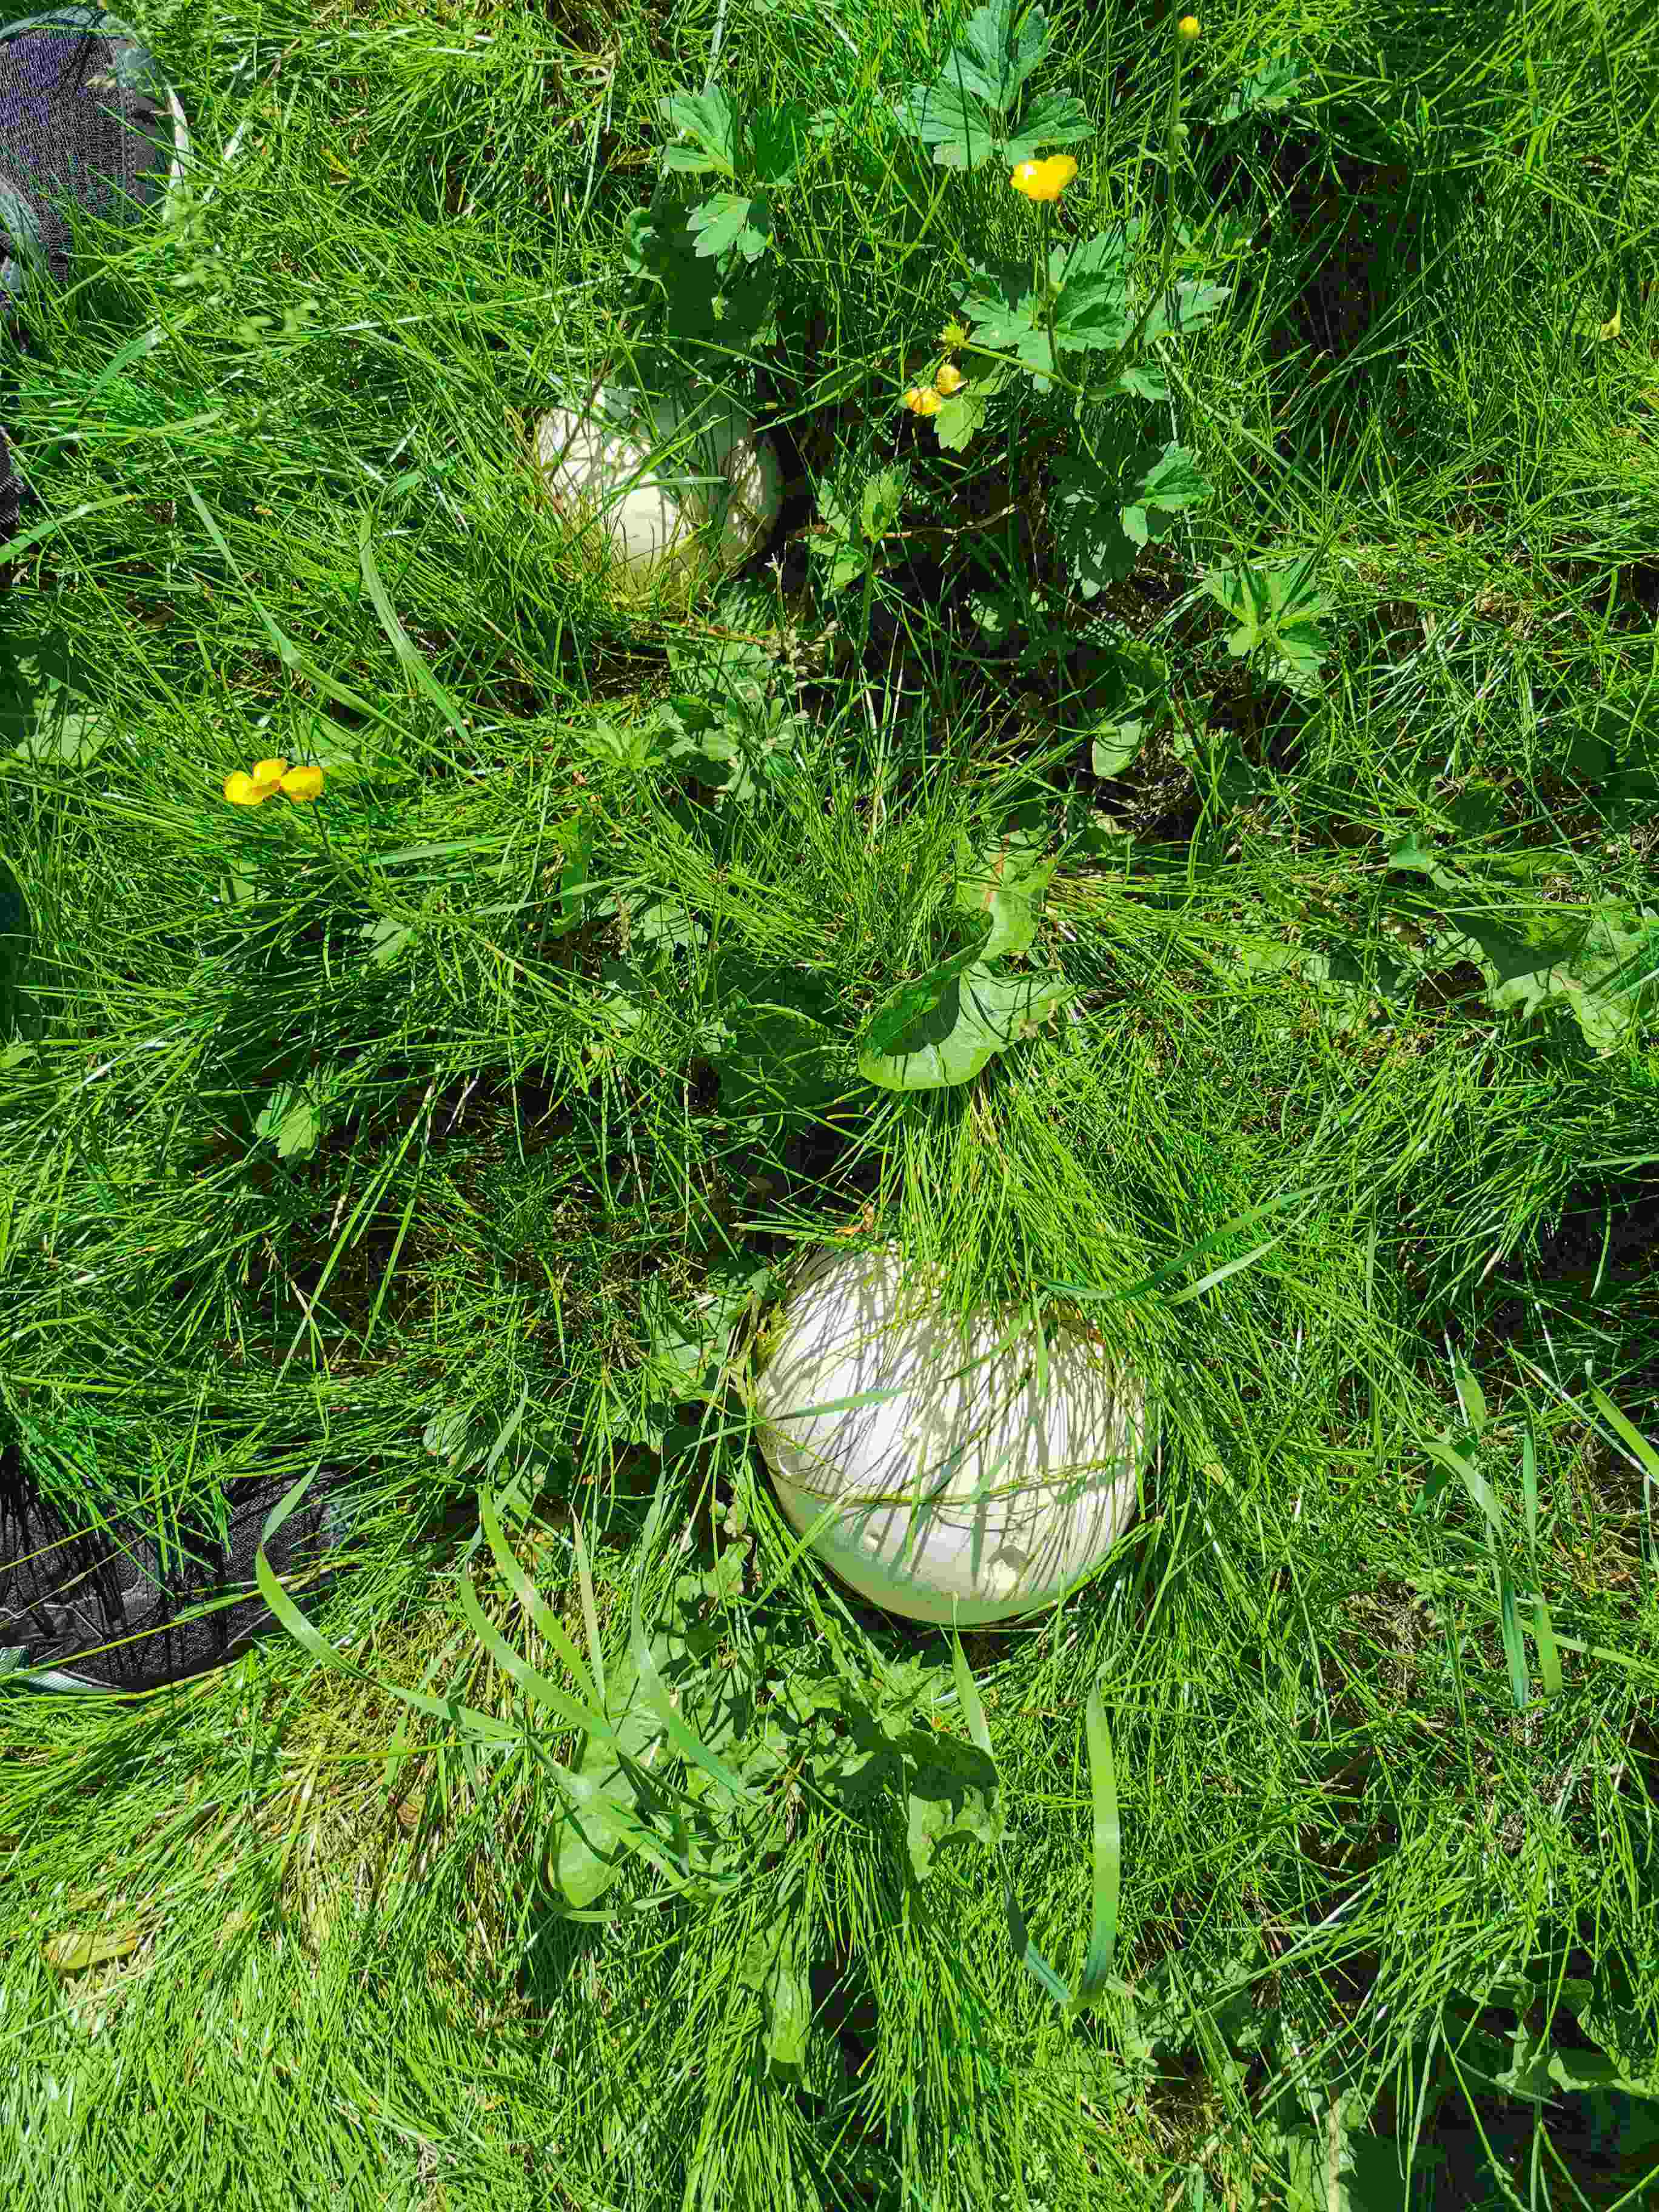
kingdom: Fungi
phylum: Basidiomycota
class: Agaricomycetes
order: Agaricales
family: Lycoperdaceae
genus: Calvatia
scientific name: Calvatia gigantea
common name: kæmpestøvbold
